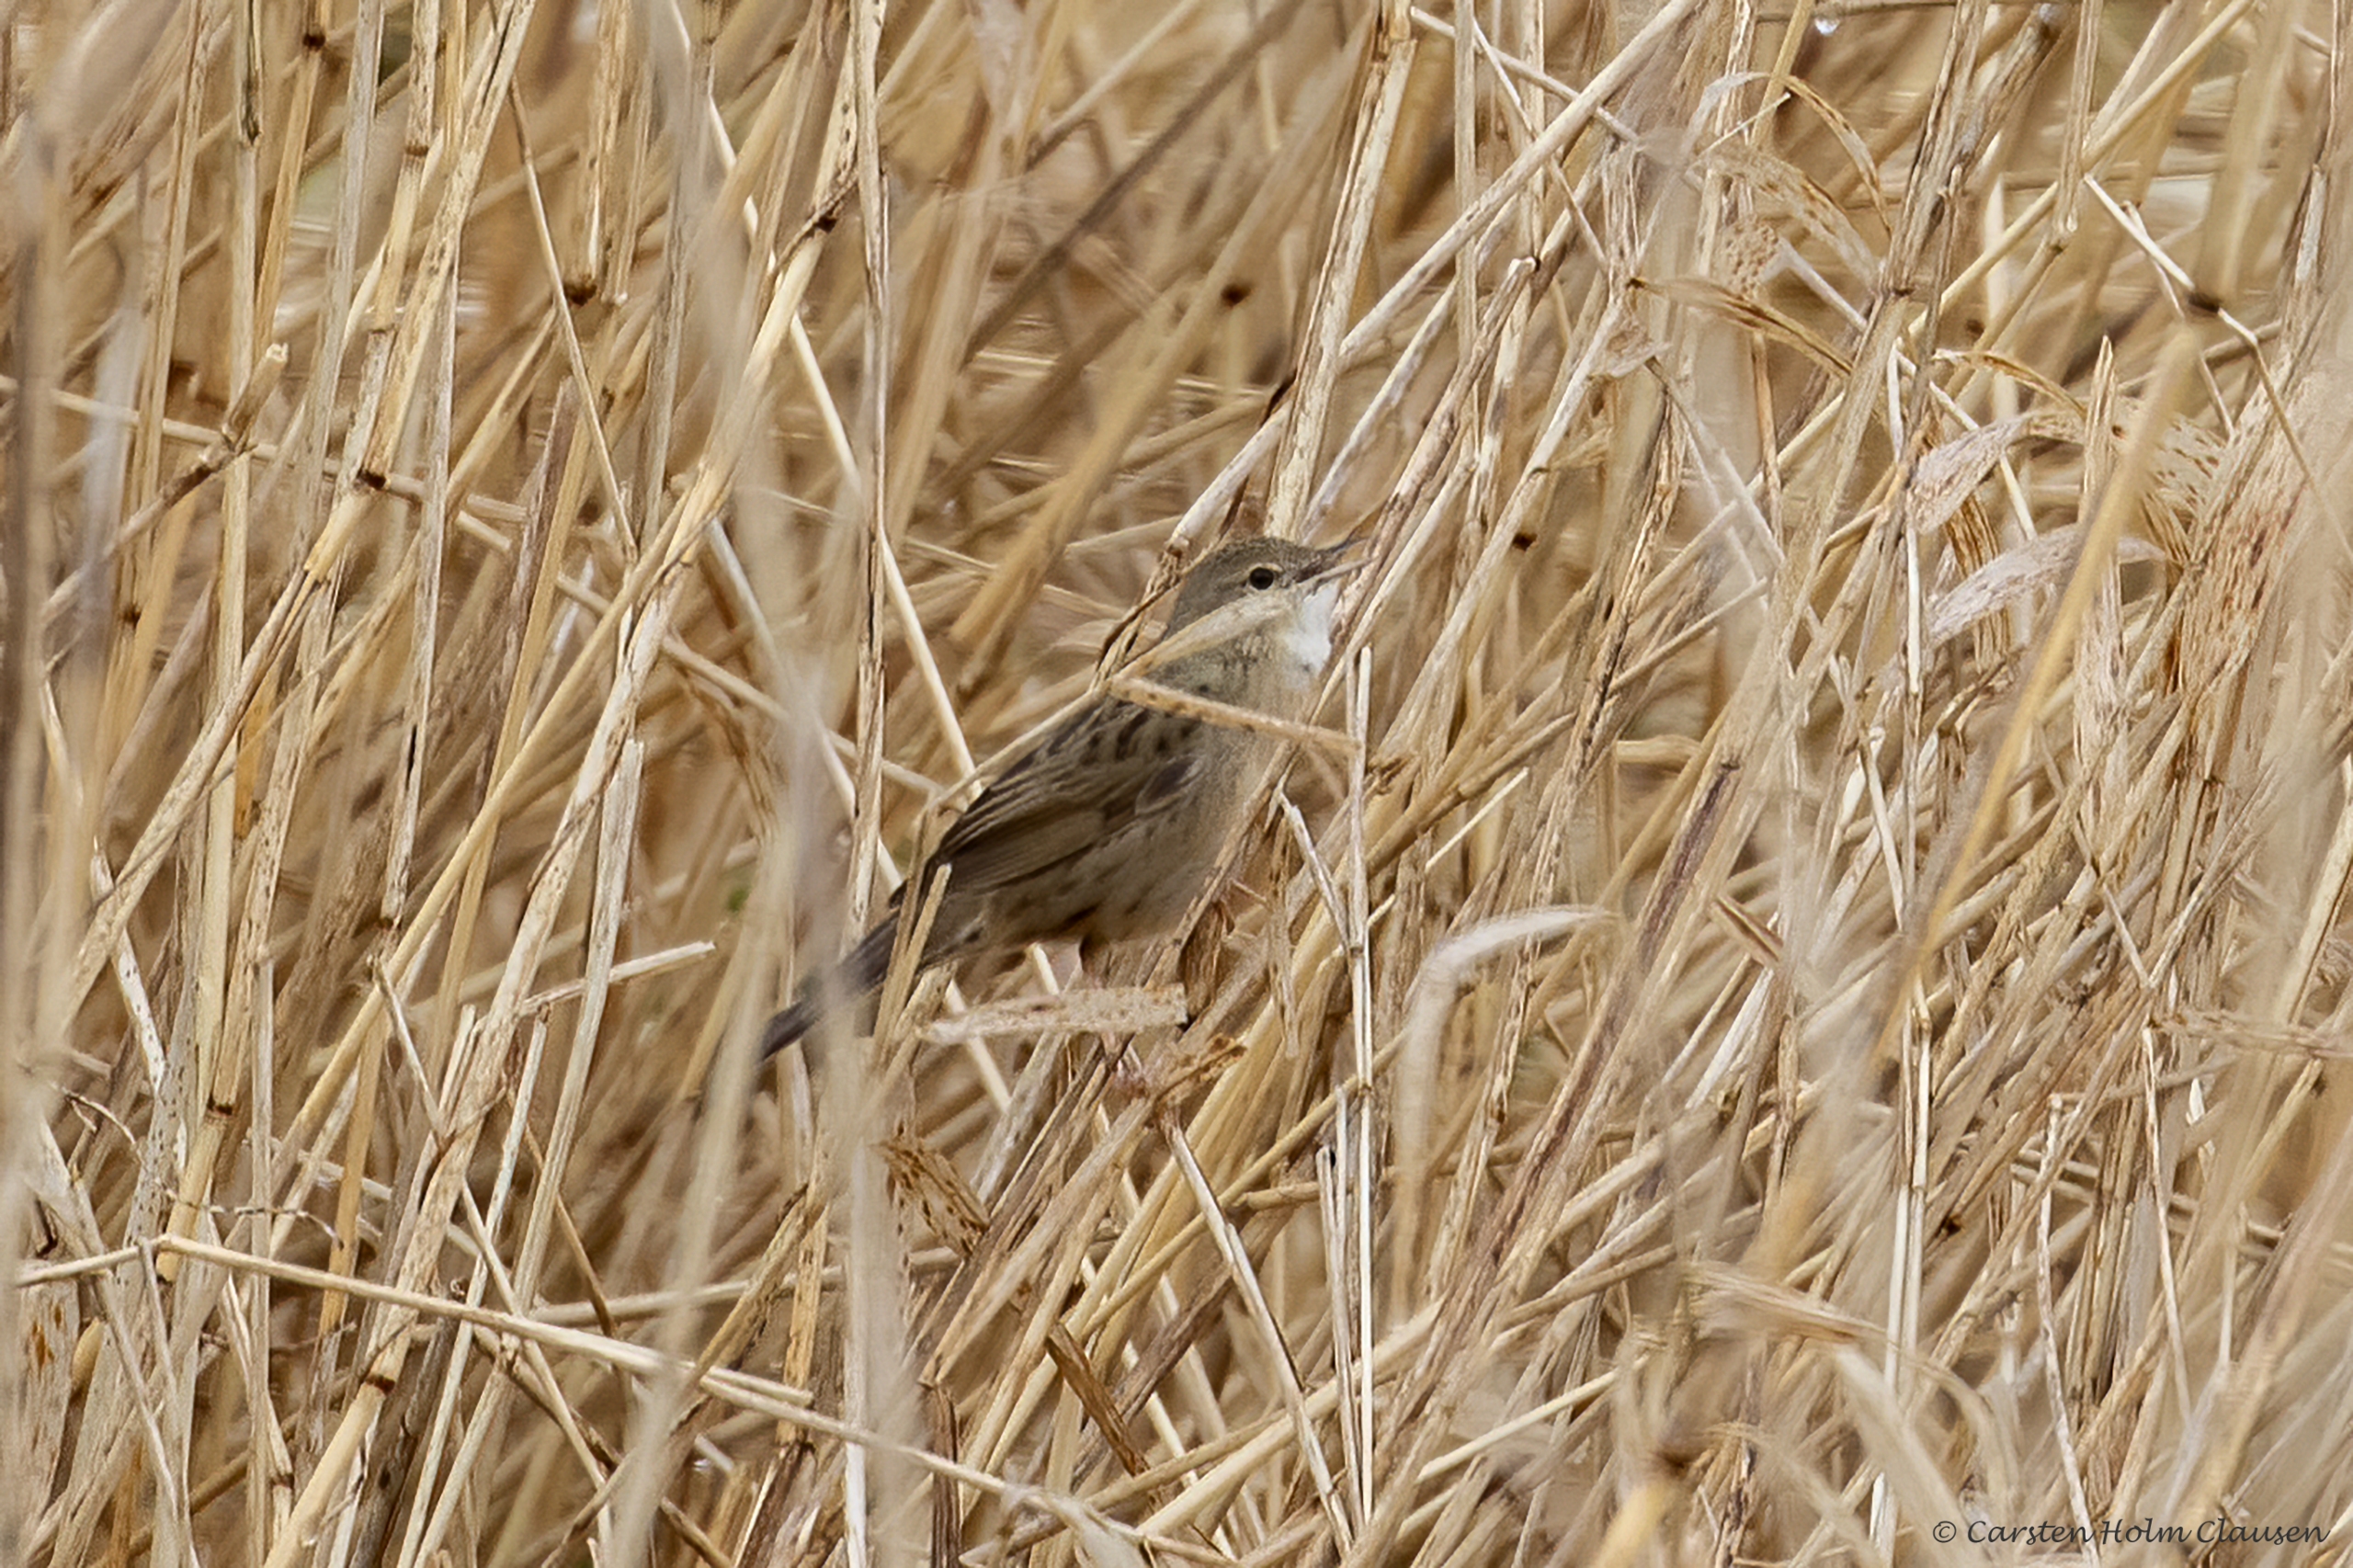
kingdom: Animalia
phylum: Chordata
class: Aves
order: Passeriformes
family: Locustellidae
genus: Locustella
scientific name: Locustella naevia
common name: Græshoppesanger
